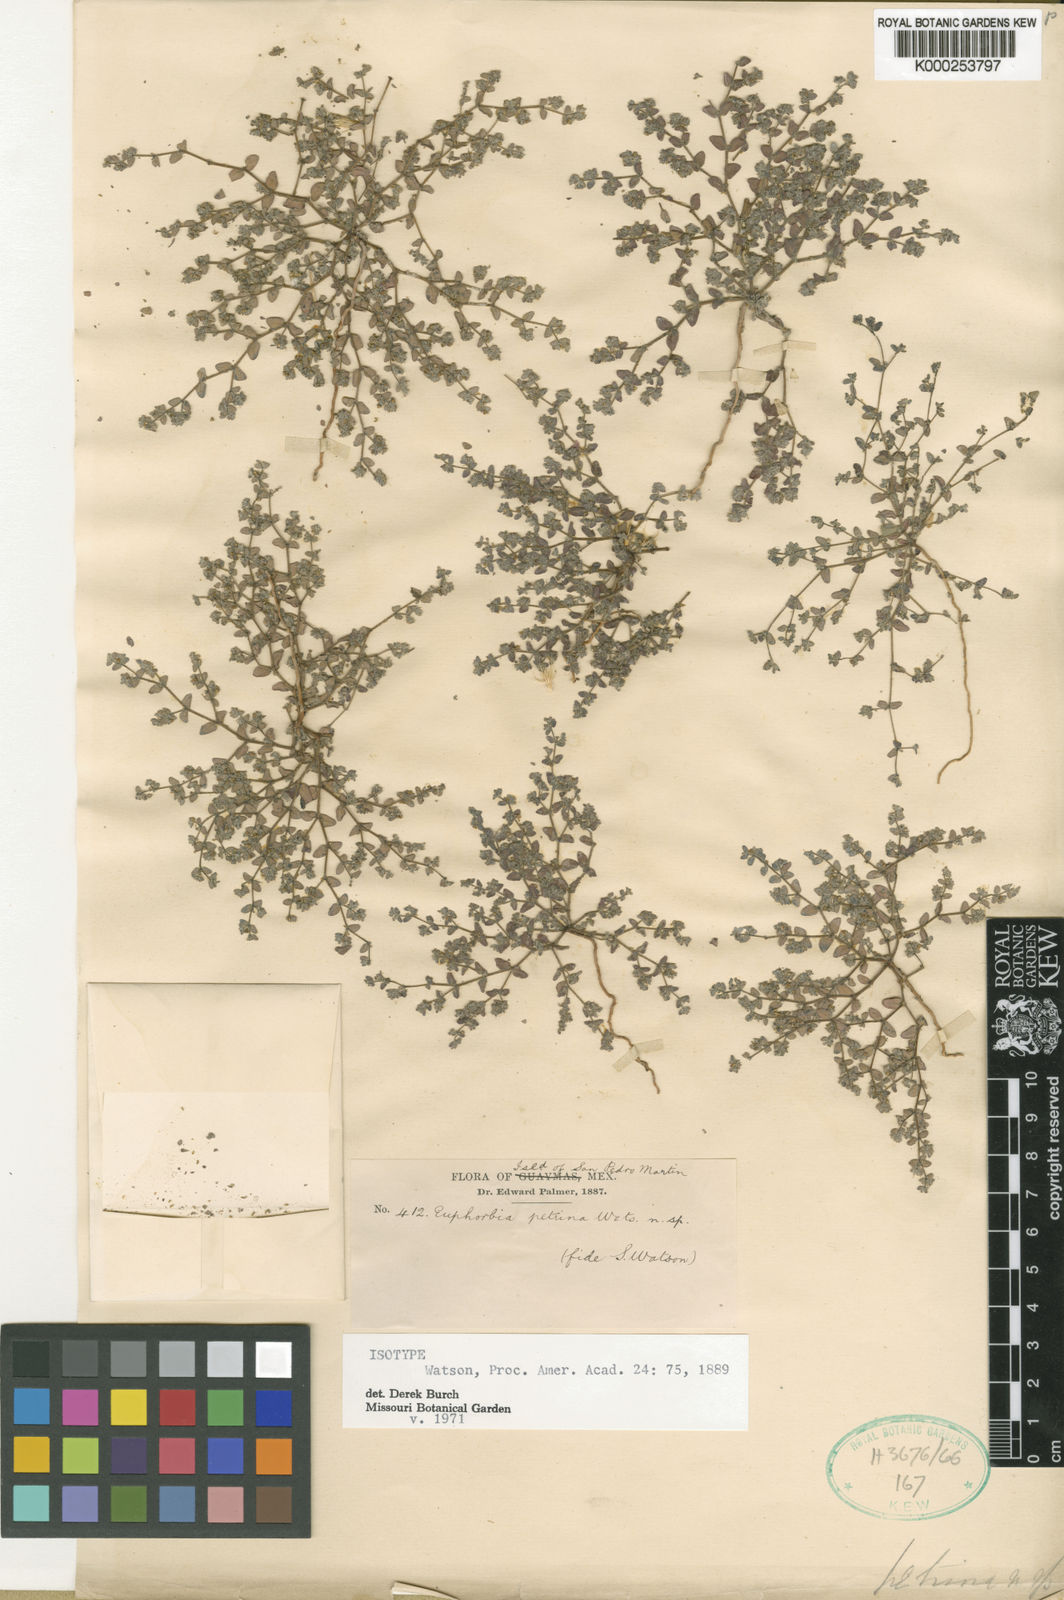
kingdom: Plantae
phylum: Tracheophyta
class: Magnoliopsida
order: Malpighiales
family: Euphorbiaceae
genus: Euphorbia
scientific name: Euphorbia petrina
